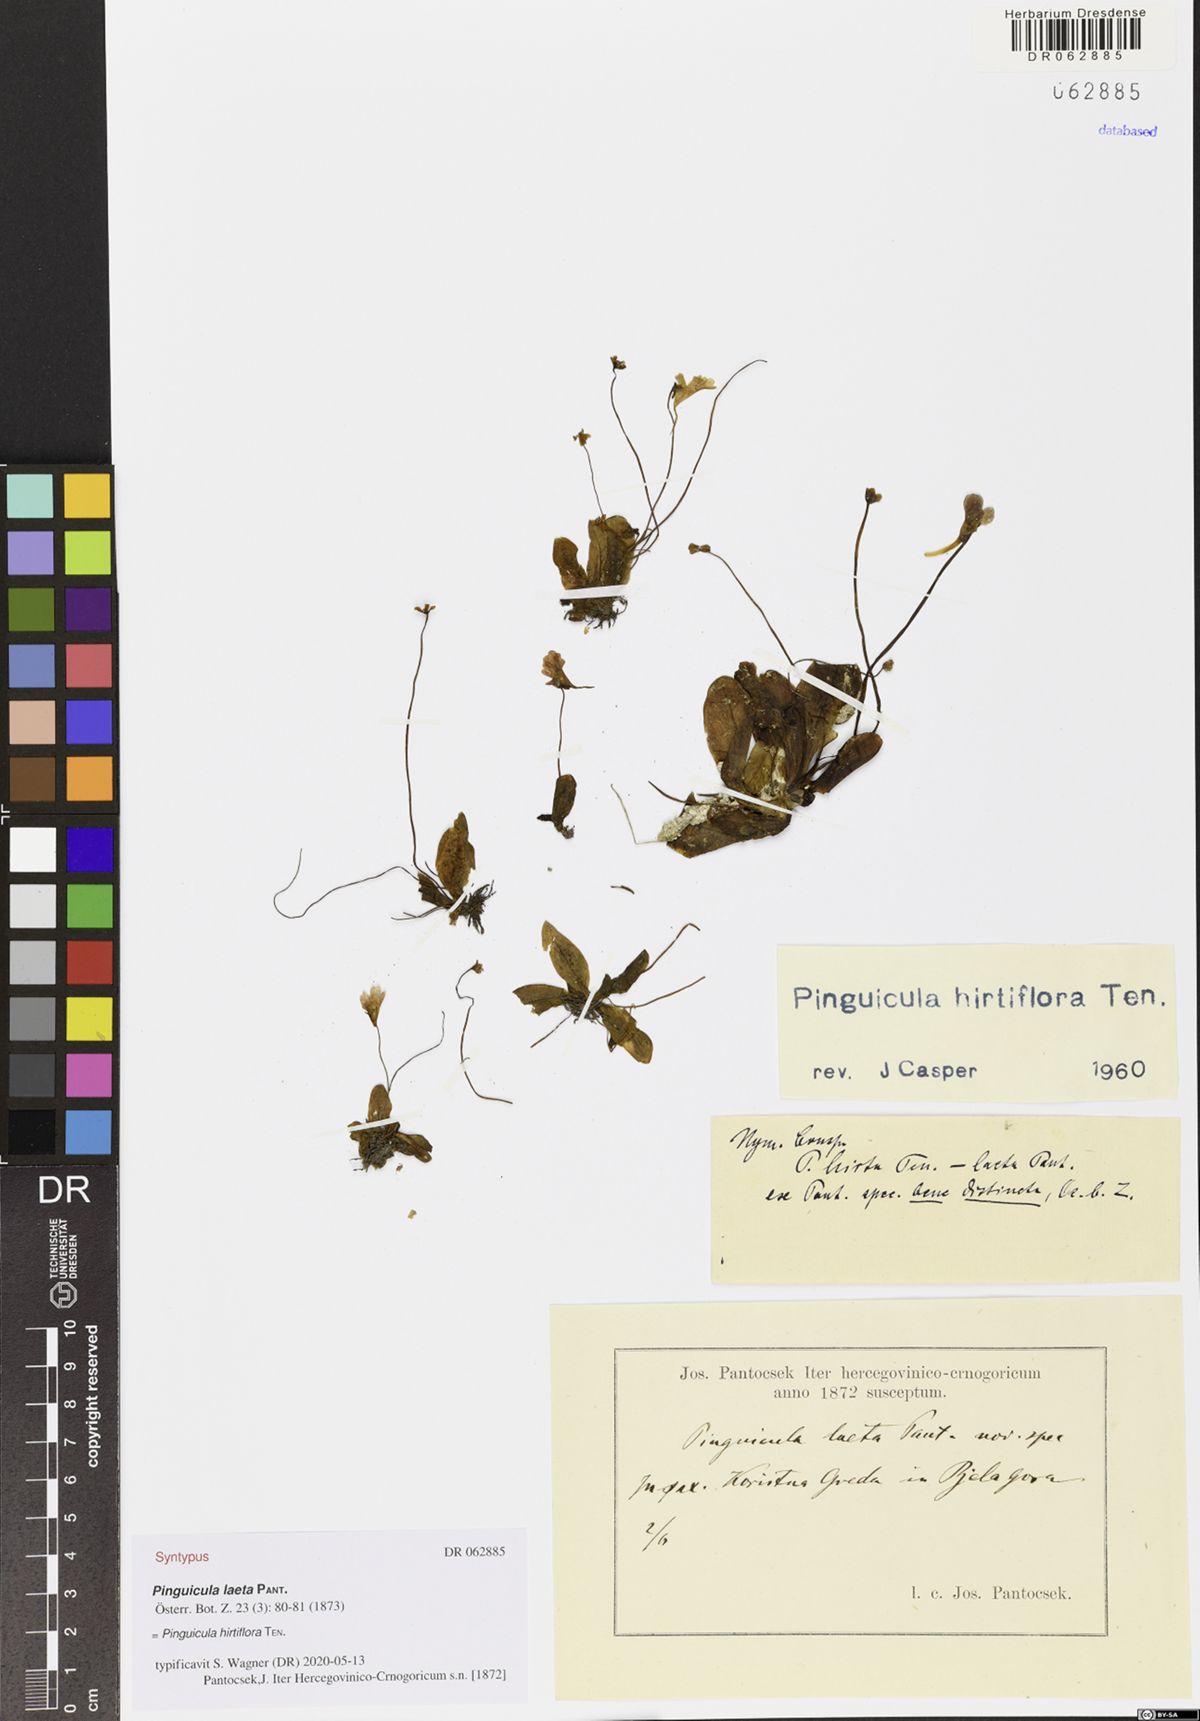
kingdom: Plantae
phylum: Tracheophyta
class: Magnoliopsida
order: Lamiales
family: Lentibulariaceae
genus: Pinguicula
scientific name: Pinguicula crystallina
